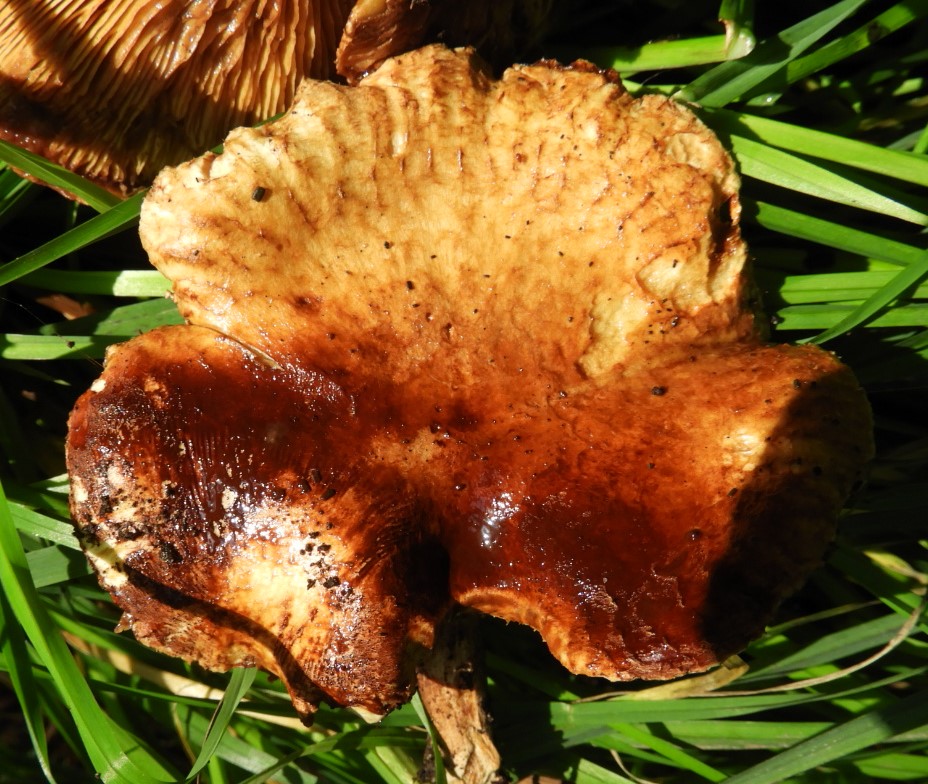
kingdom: Fungi
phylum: Basidiomycota
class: Agaricomycetes
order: Boletales
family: Paxillaceae
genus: Paxillus
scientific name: Paxillus rubicundulus
